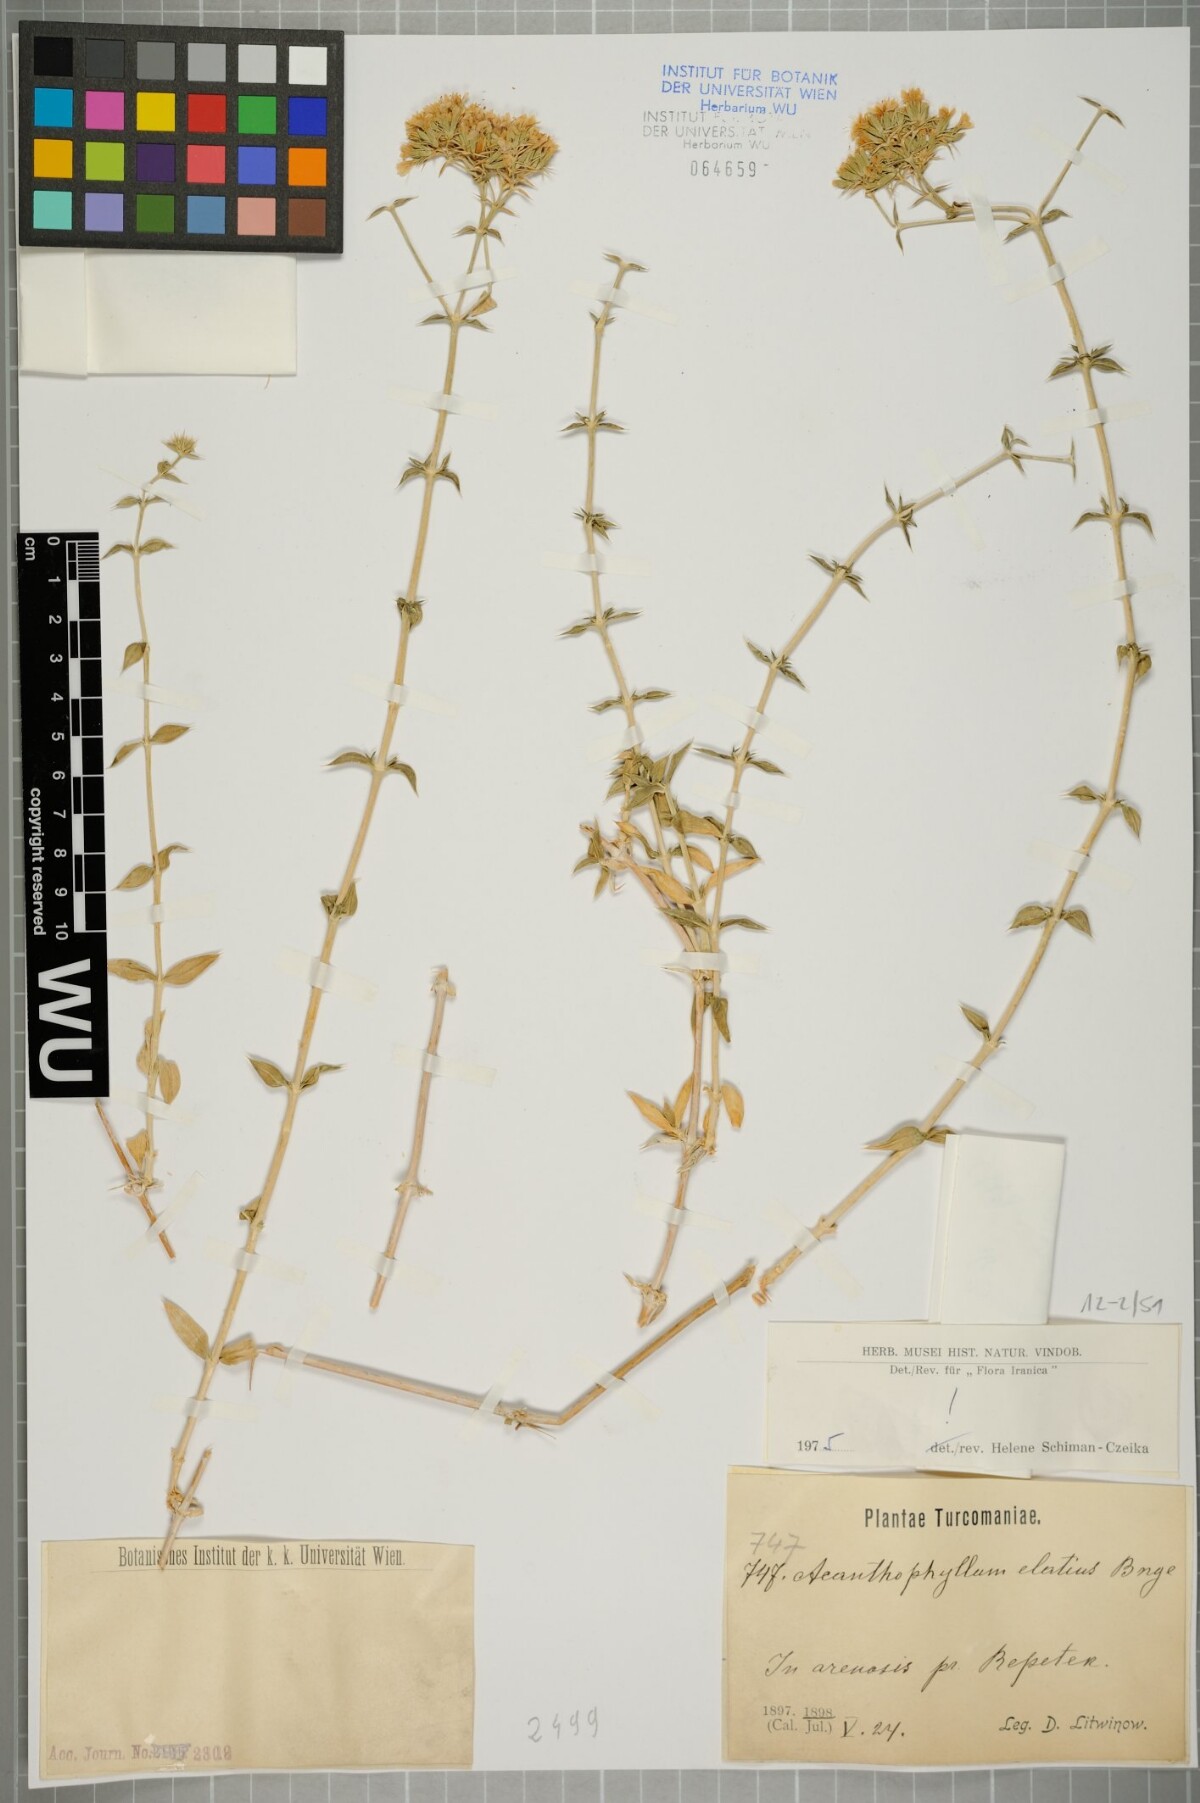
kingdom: Plantae
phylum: Tracheophyta
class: Magnoliopsida
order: Caryophyllales
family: Caryophyllaceae
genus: Acanthophyllum
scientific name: Acanthophyllum elatius
